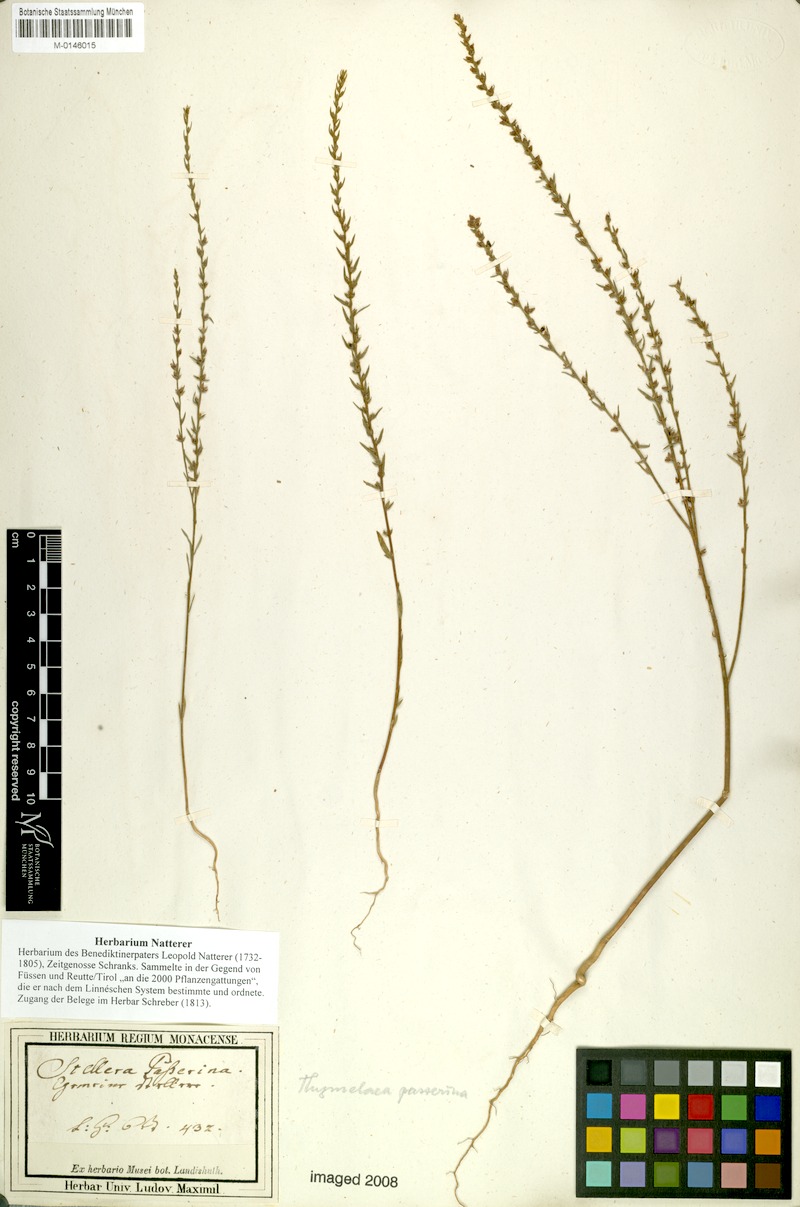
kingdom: Plantae
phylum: Tracheophyta
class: Magnoliopsida
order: Malvales
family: Thymelaeaceae
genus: Thymelaea
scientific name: Thymelaea passerina
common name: Annual thymelaea
